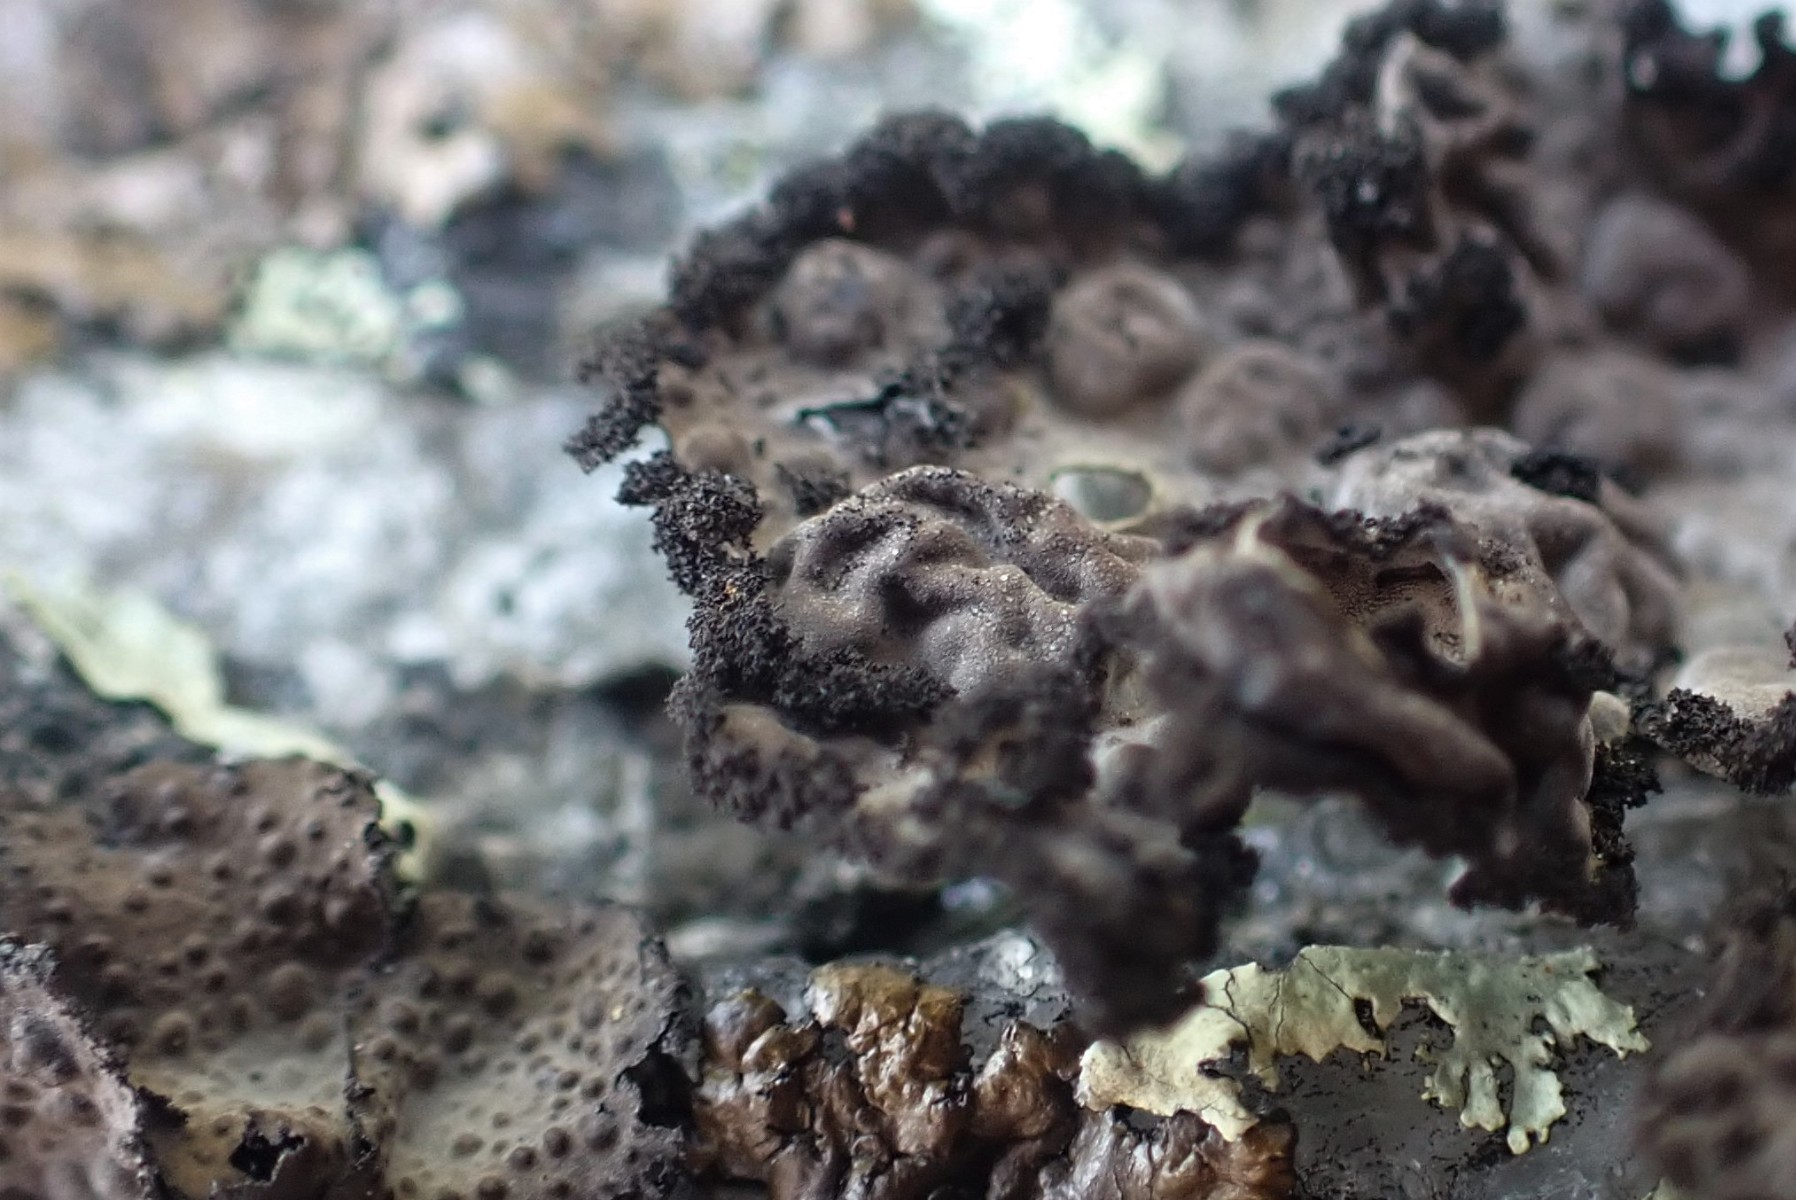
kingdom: Fungi
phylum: Ascomycota
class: Lecanoromycetes
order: Umbilicariales
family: Umbilicariaceae
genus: Lasallia
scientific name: Lasallia pustulata
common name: buklet navlelav
